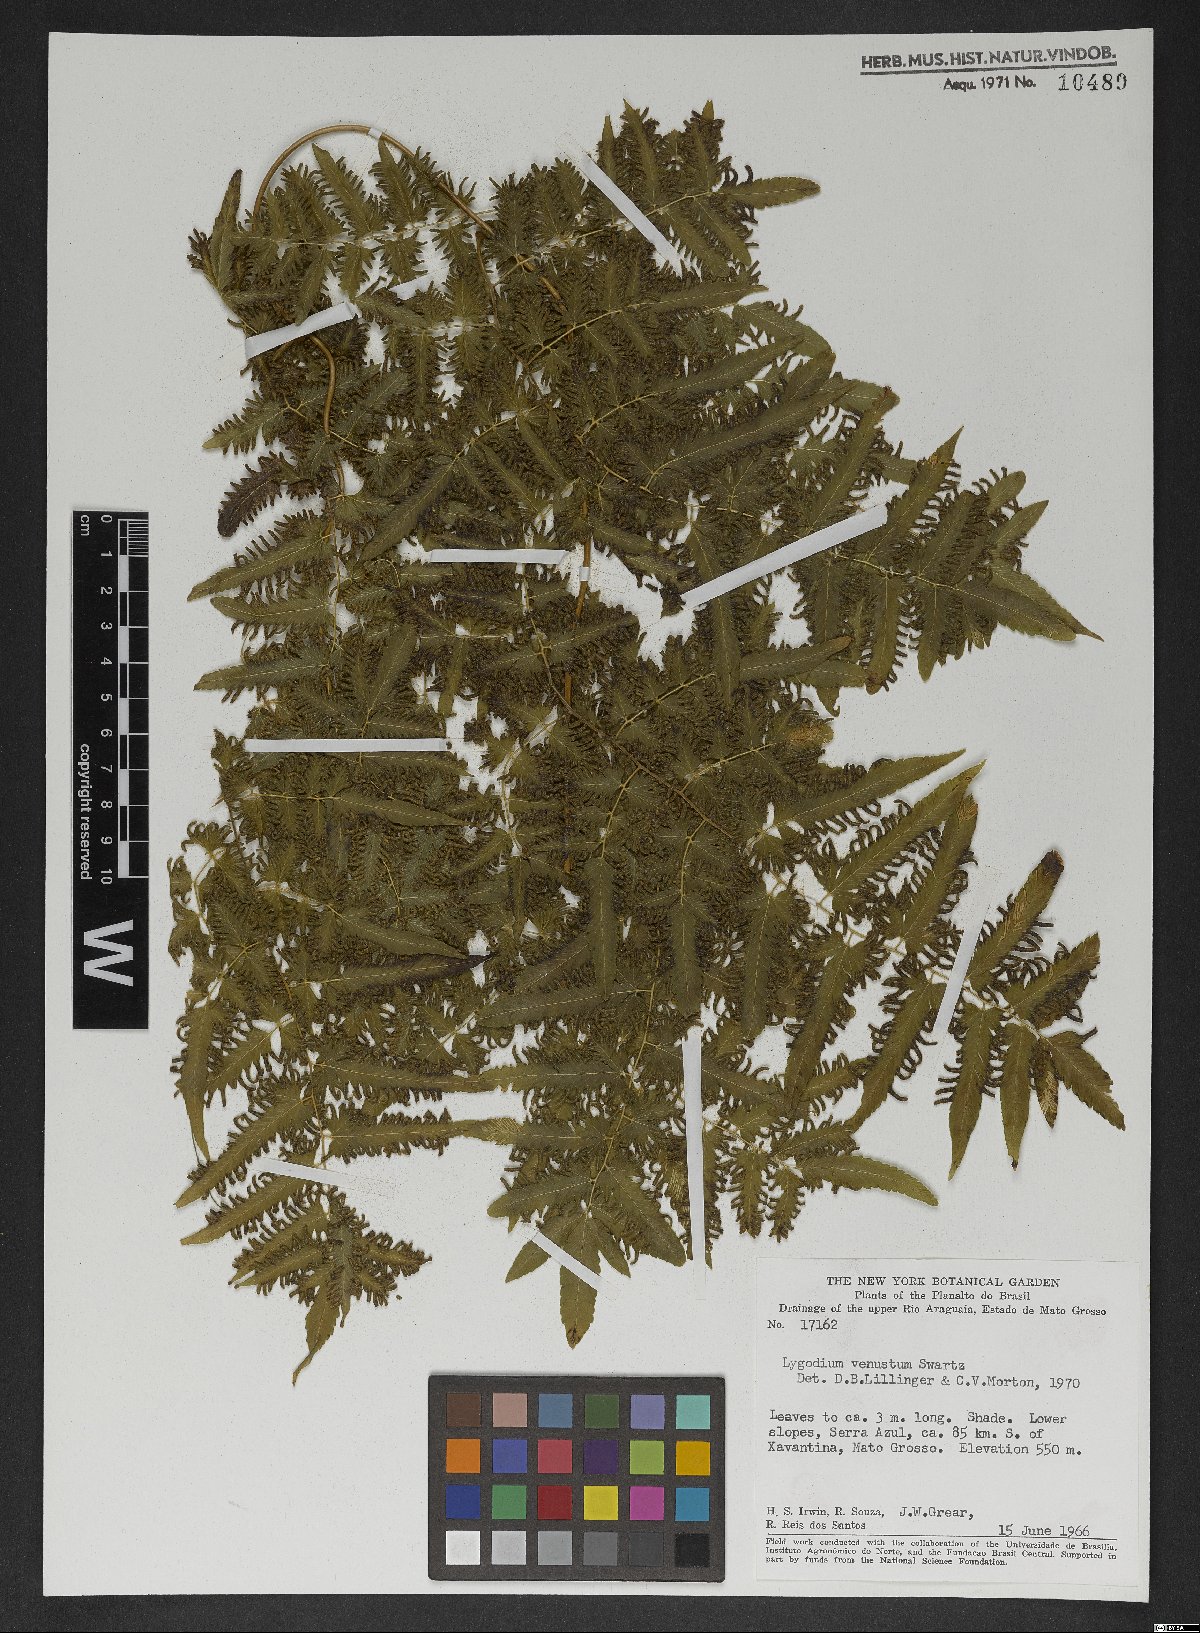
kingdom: Plantae
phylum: Tracheophyta
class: Polypodiopsida
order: Schizaeales
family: Lygodiaceae
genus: Lygodium
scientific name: Lygodium venustum
